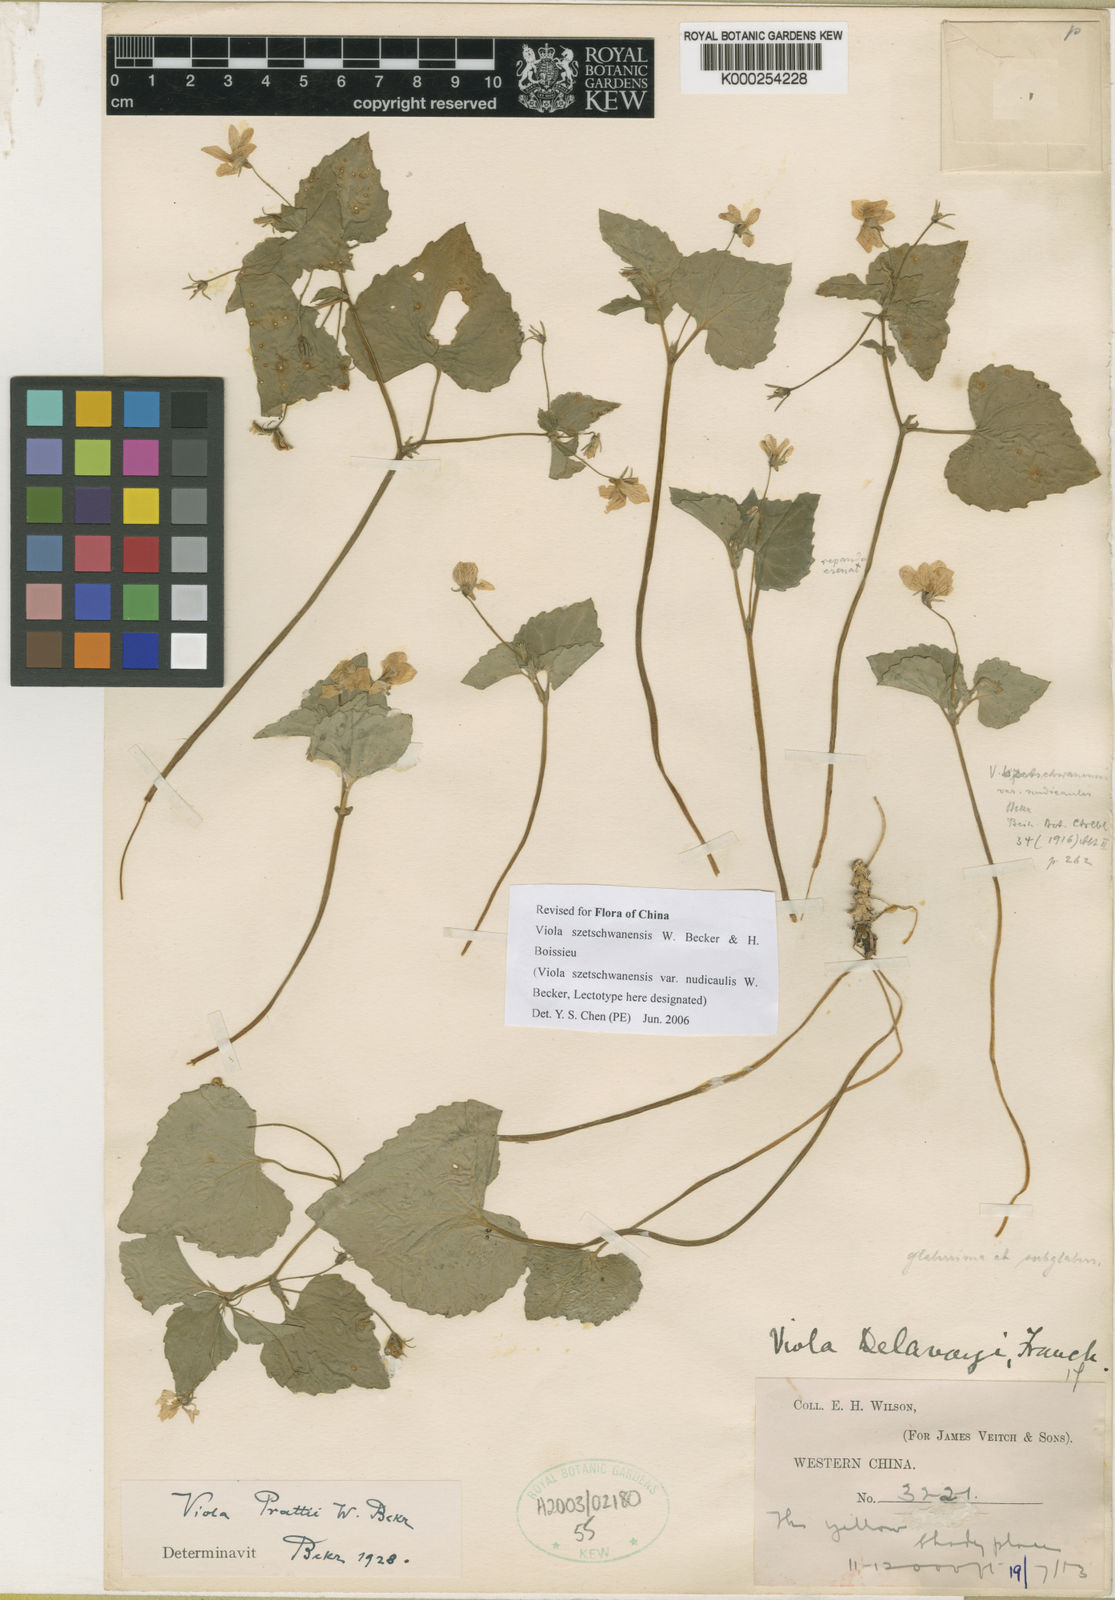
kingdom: Plantae
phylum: Tracheophyta
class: Magnoliopsida
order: Malpighiales
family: Violaceae
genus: Viola
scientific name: Viola szetschwanensis
